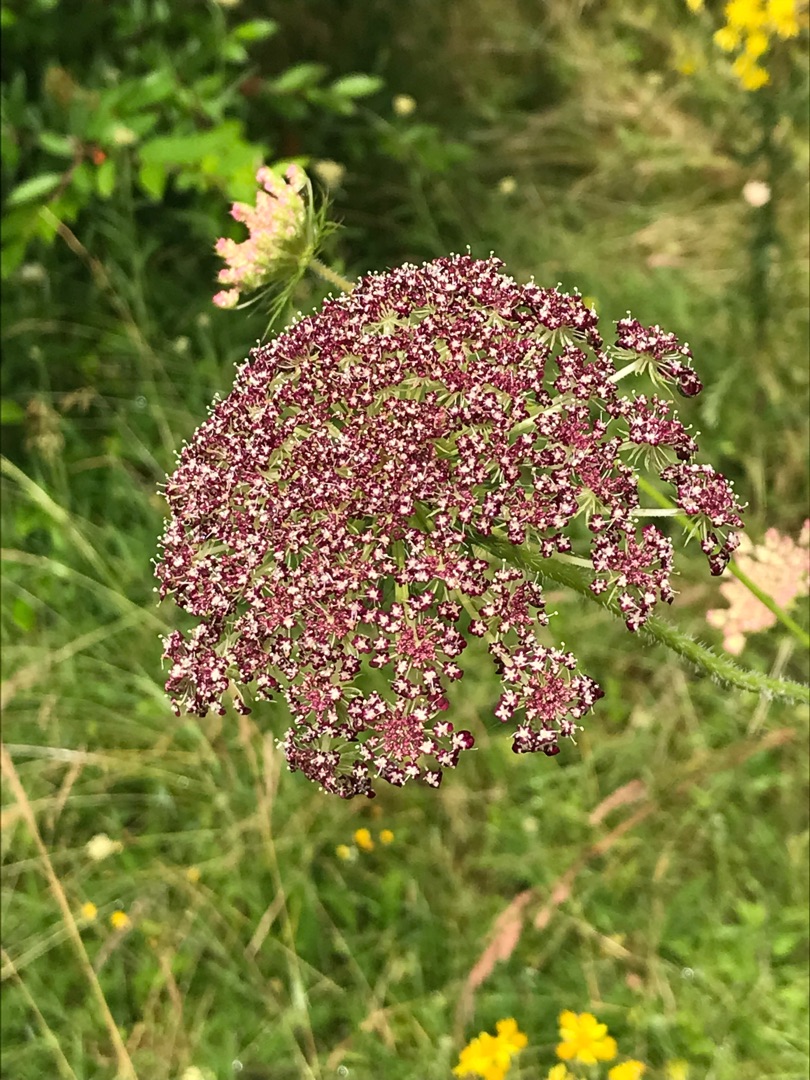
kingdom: Plantae
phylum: Tracheophyta
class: Magnoliopsida
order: Apiales
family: Apiaceae
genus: Daucus
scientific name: Daucus carota
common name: Gulerod
